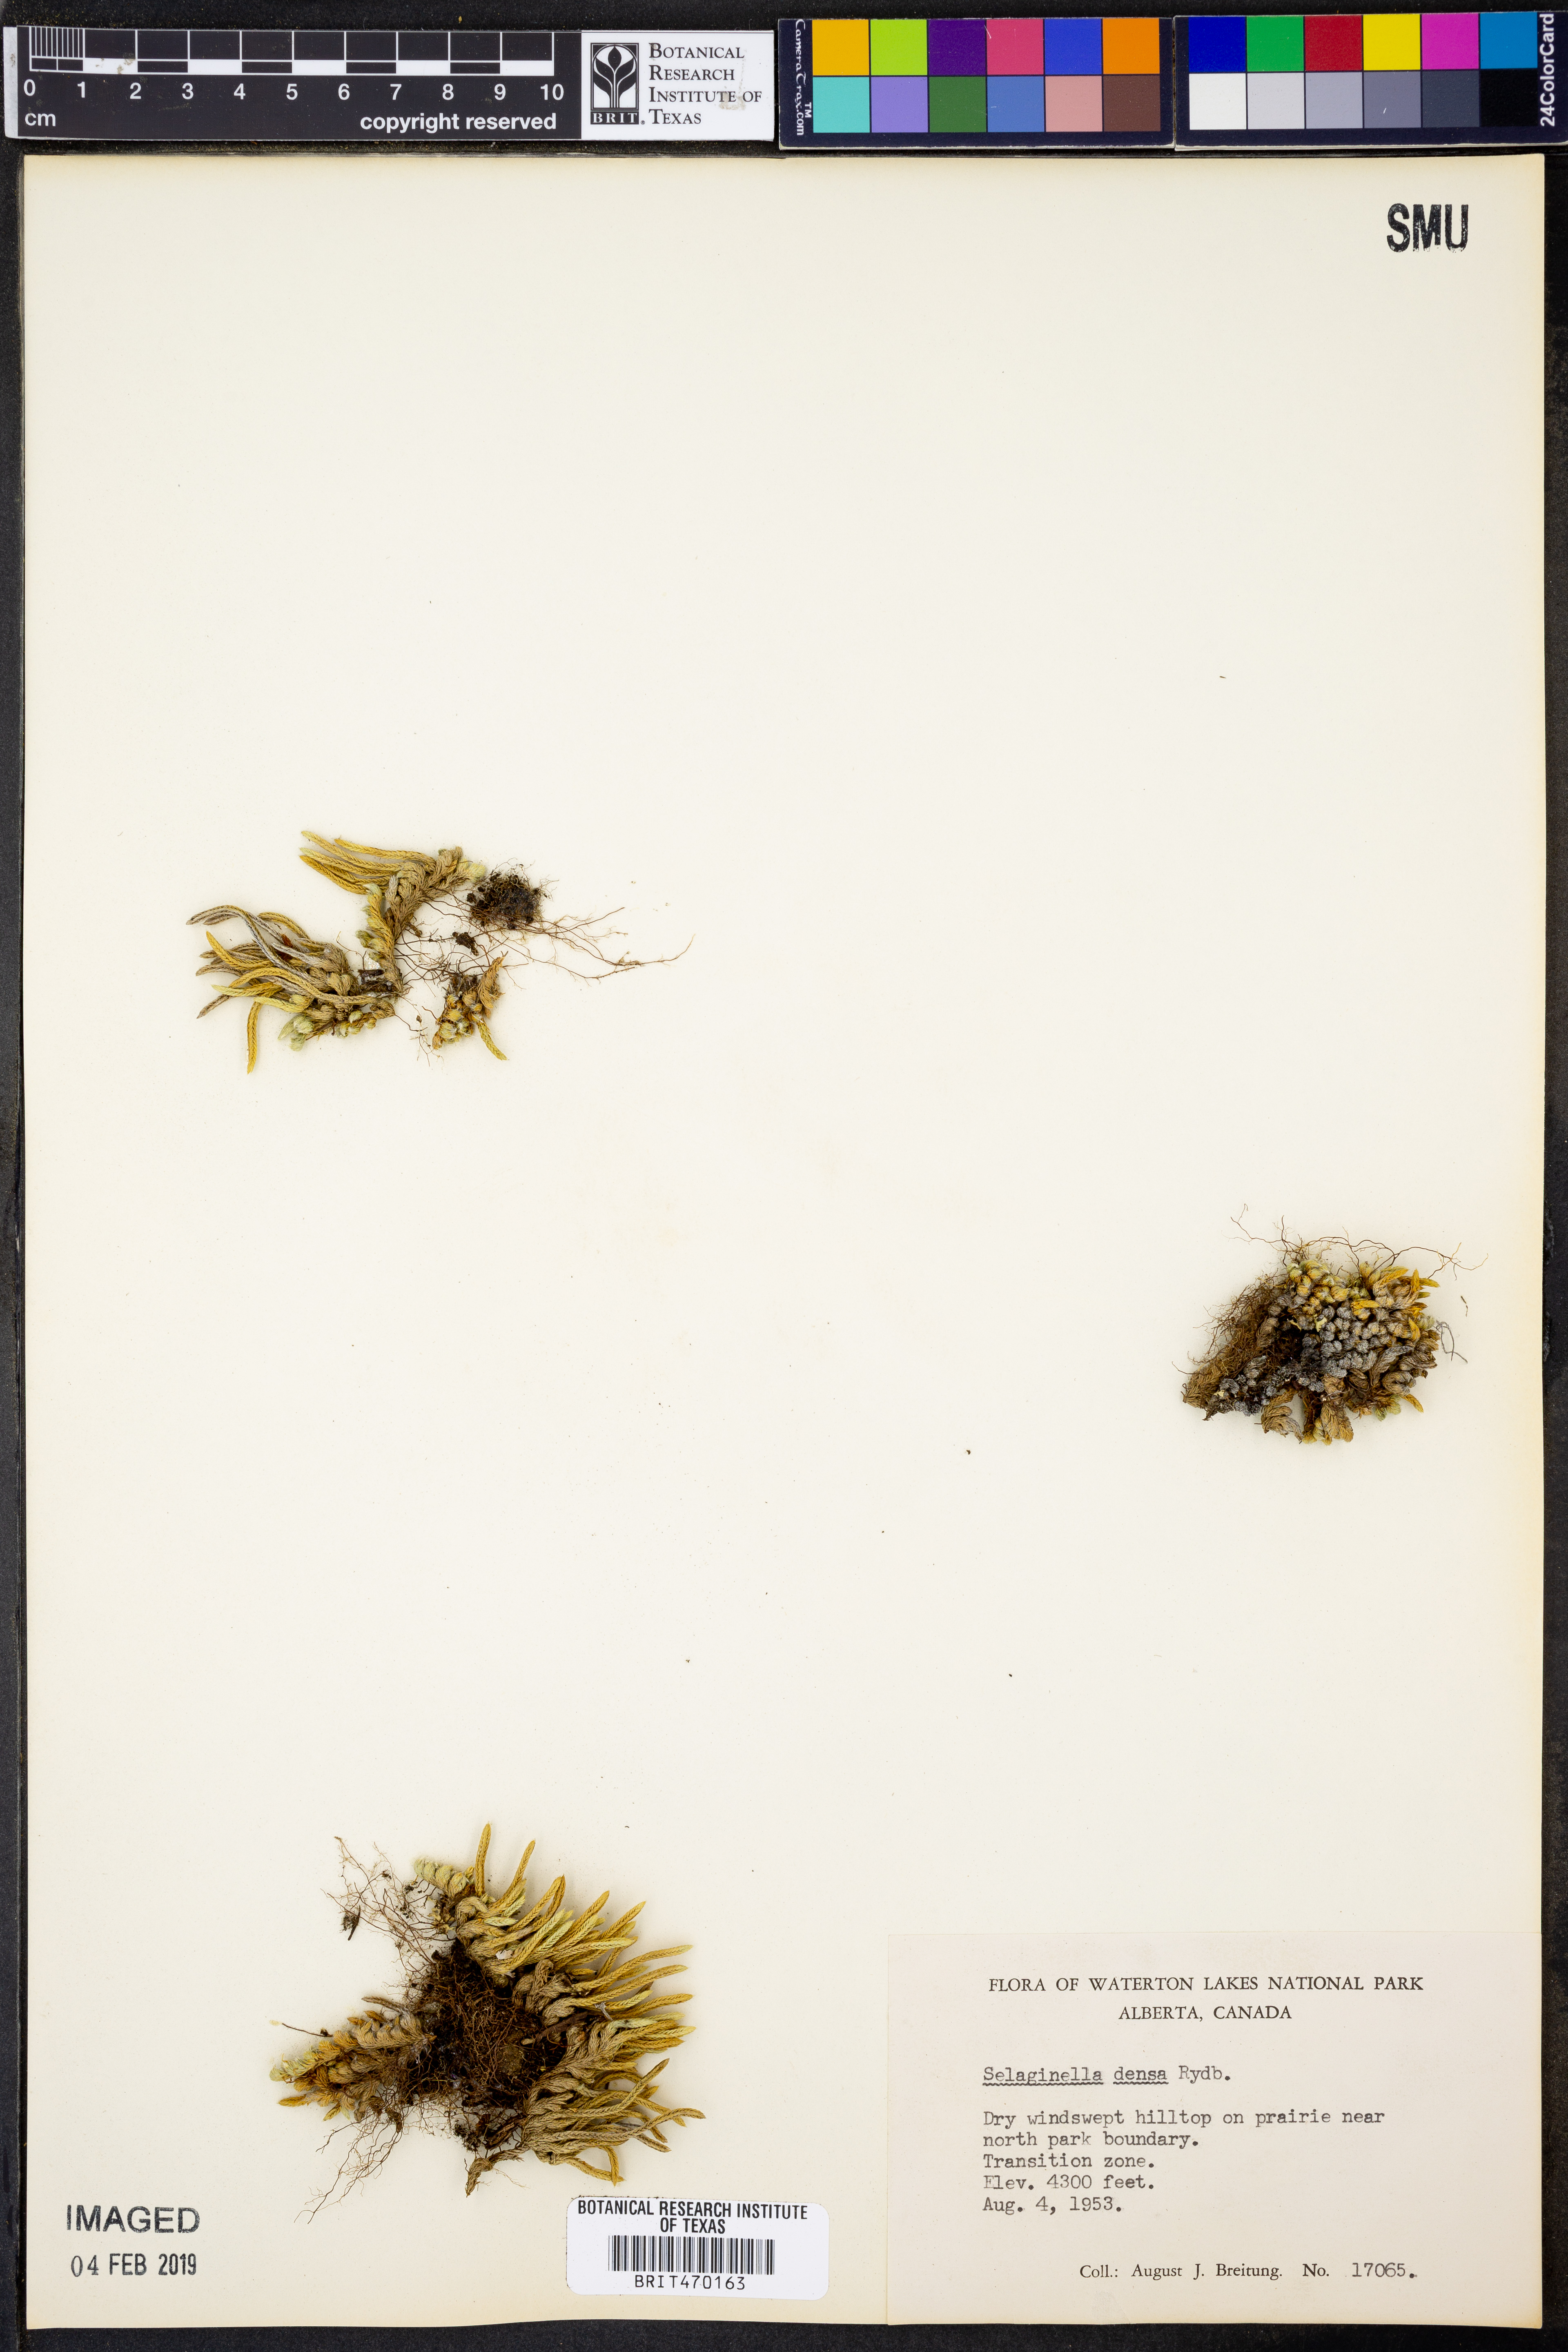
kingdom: Plantae
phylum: Tracheophyta
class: Lycopodiopsida
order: Selaginellales
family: Selaginellaceae
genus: Selaginella
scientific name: Selaginella densa
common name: Mountain spike-moss
